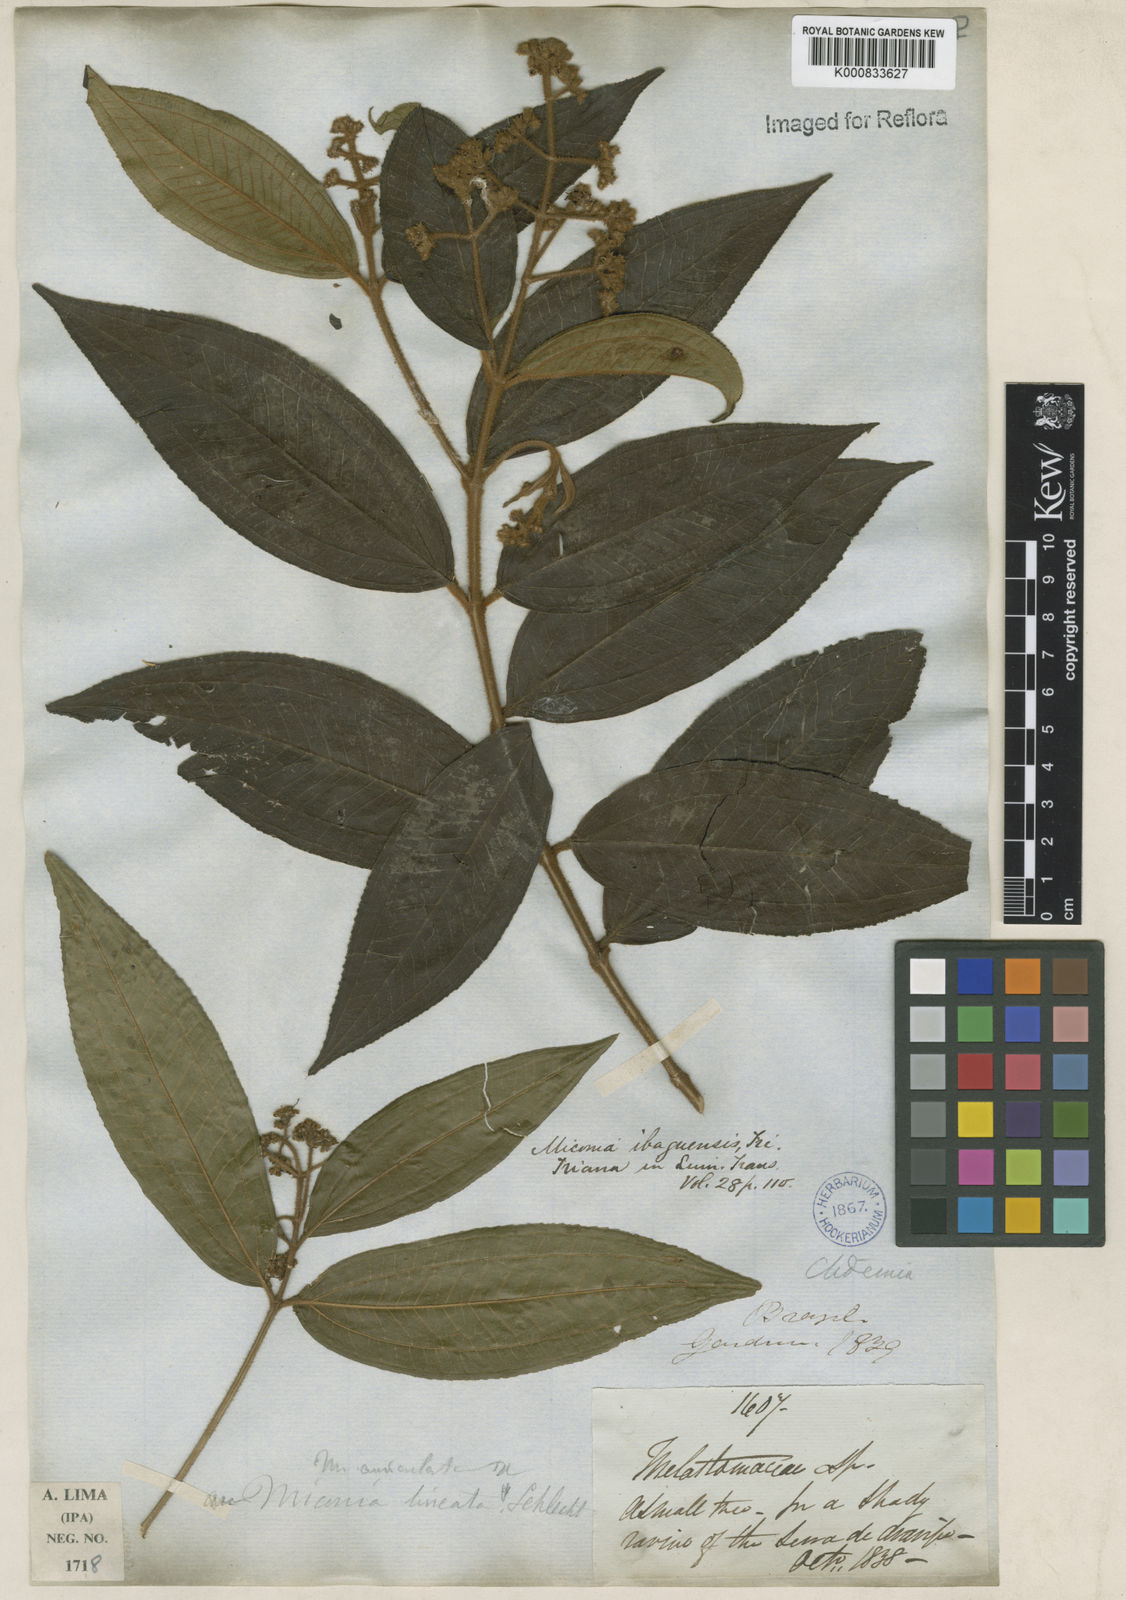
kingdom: Plantae
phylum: Tracheophyta
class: Magnoliopsida
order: Myrtales
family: Melastomataceae
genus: Miconia
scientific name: Miconia ibaguensis
